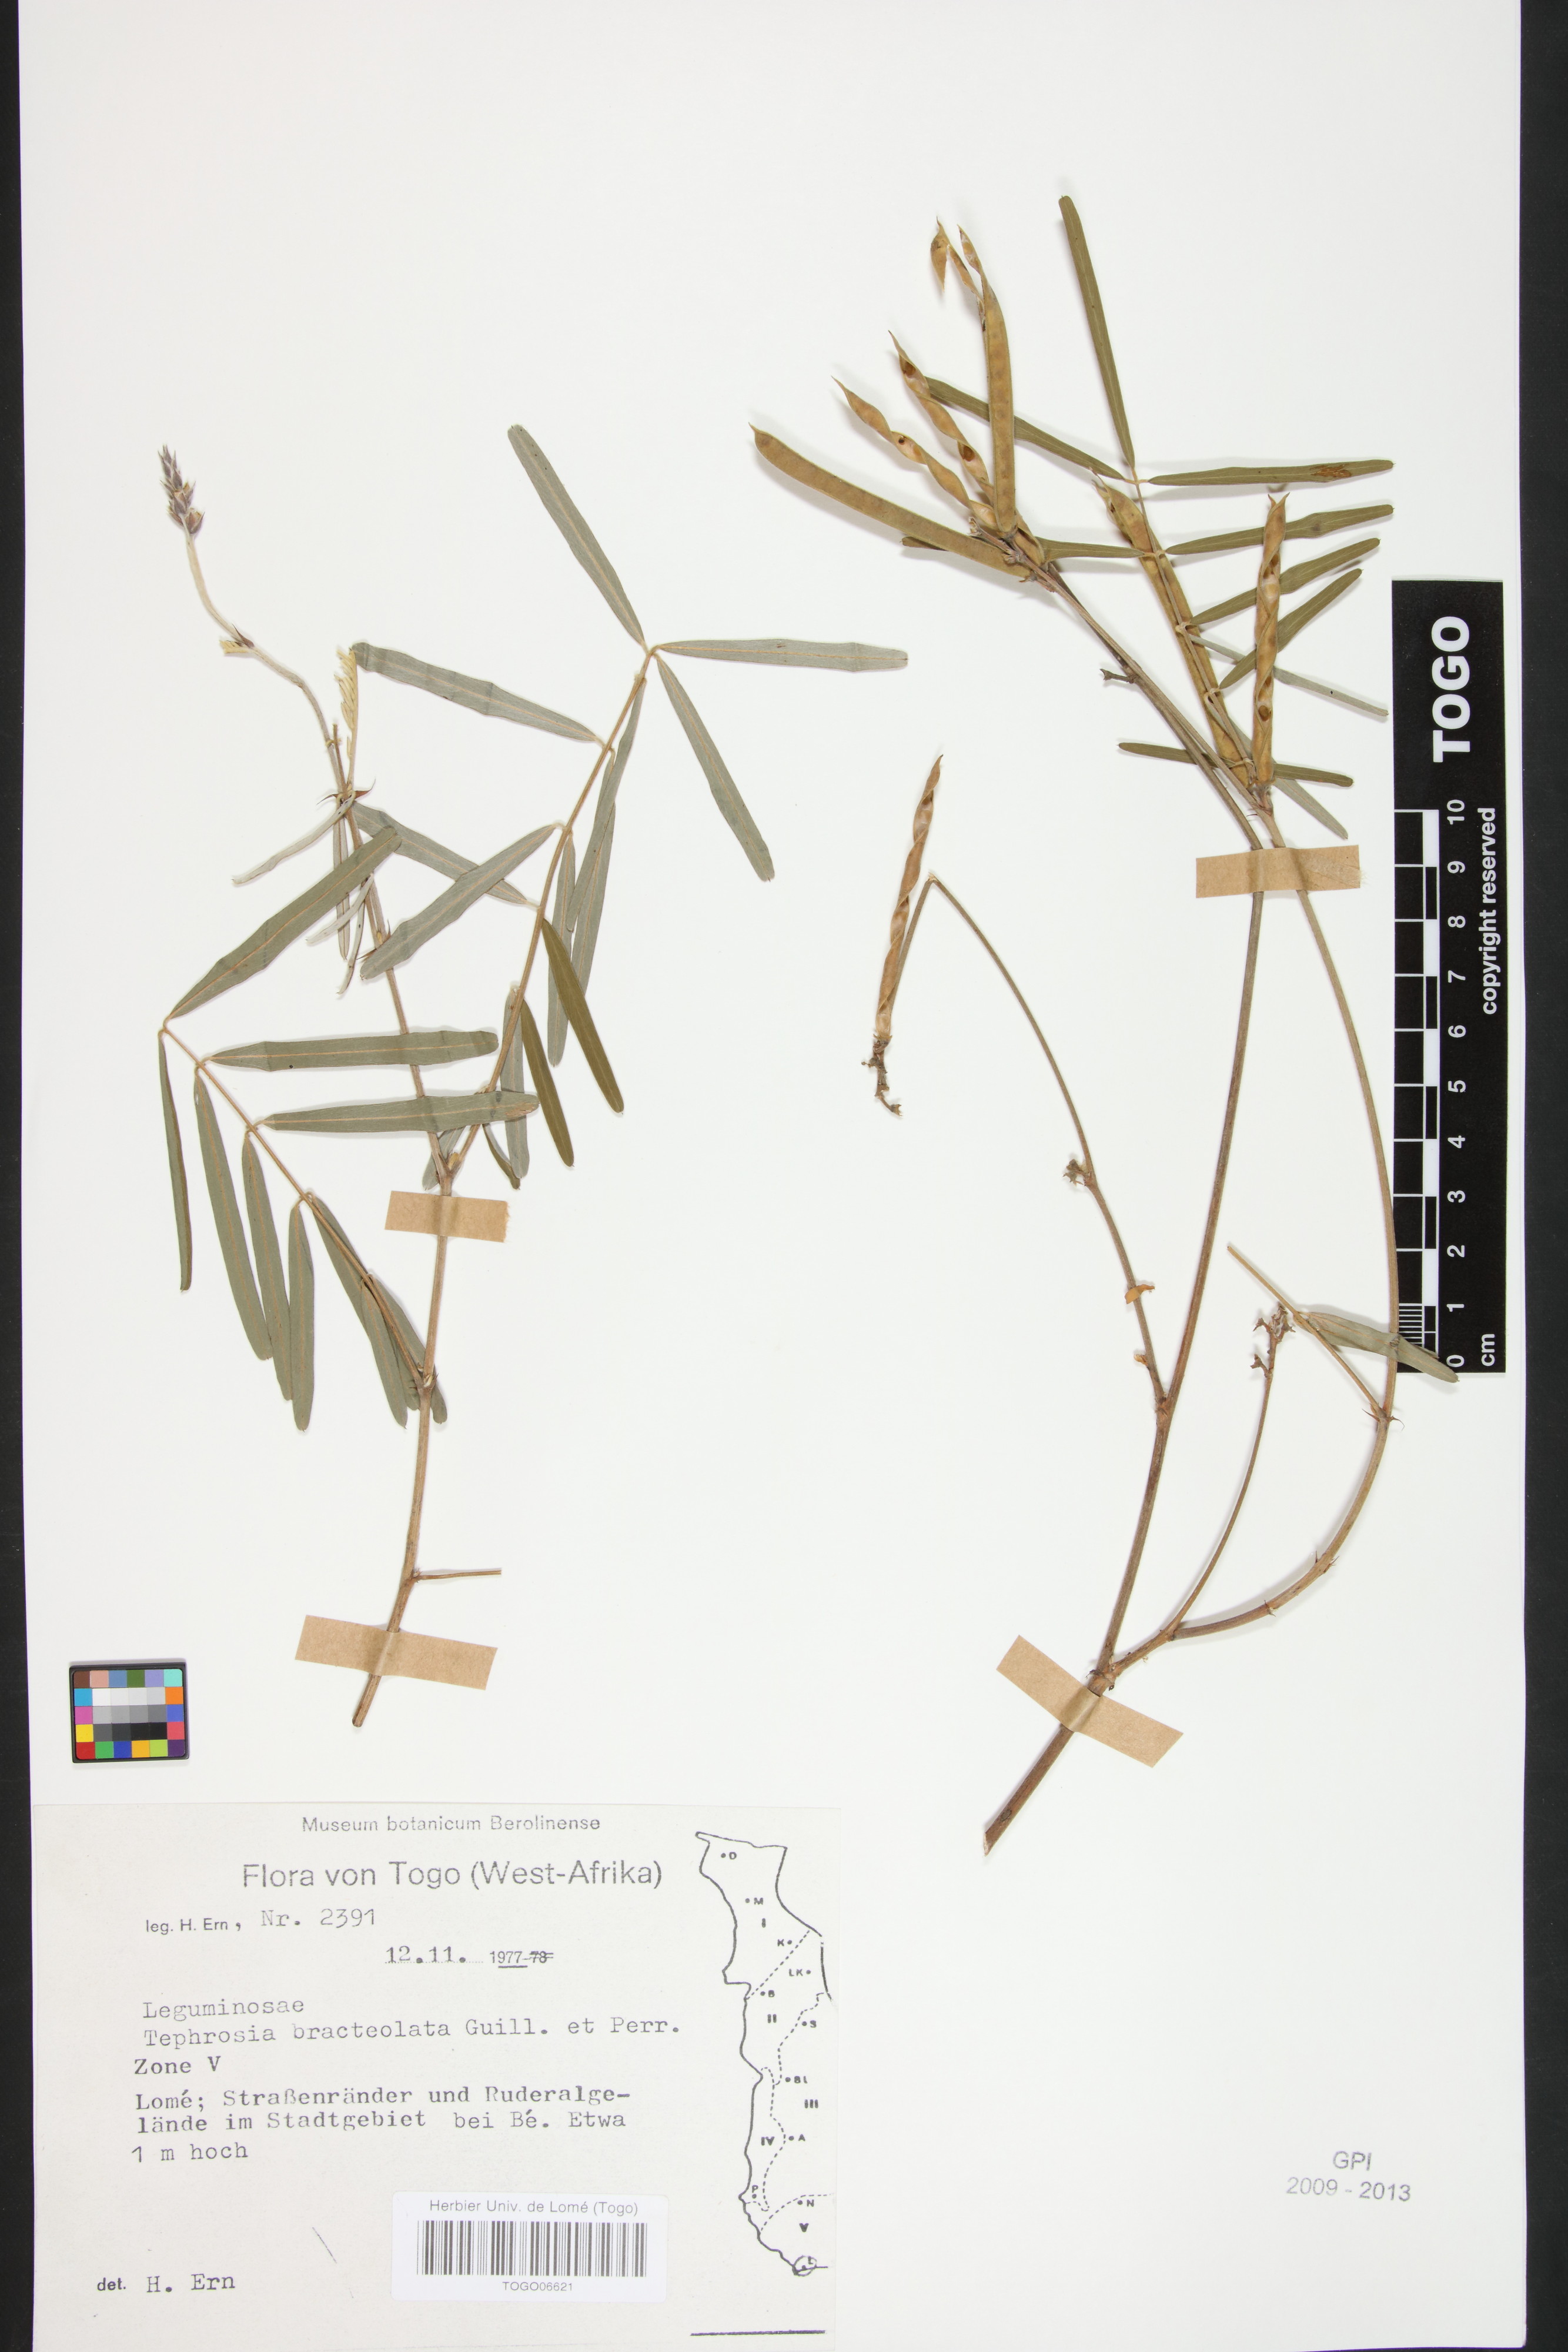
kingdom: Plantae
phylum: Tracheophyta
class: Magnoliopsida
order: Fabales
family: Fabaceae
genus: Tephrosia
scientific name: Tephrosia bracteolata
